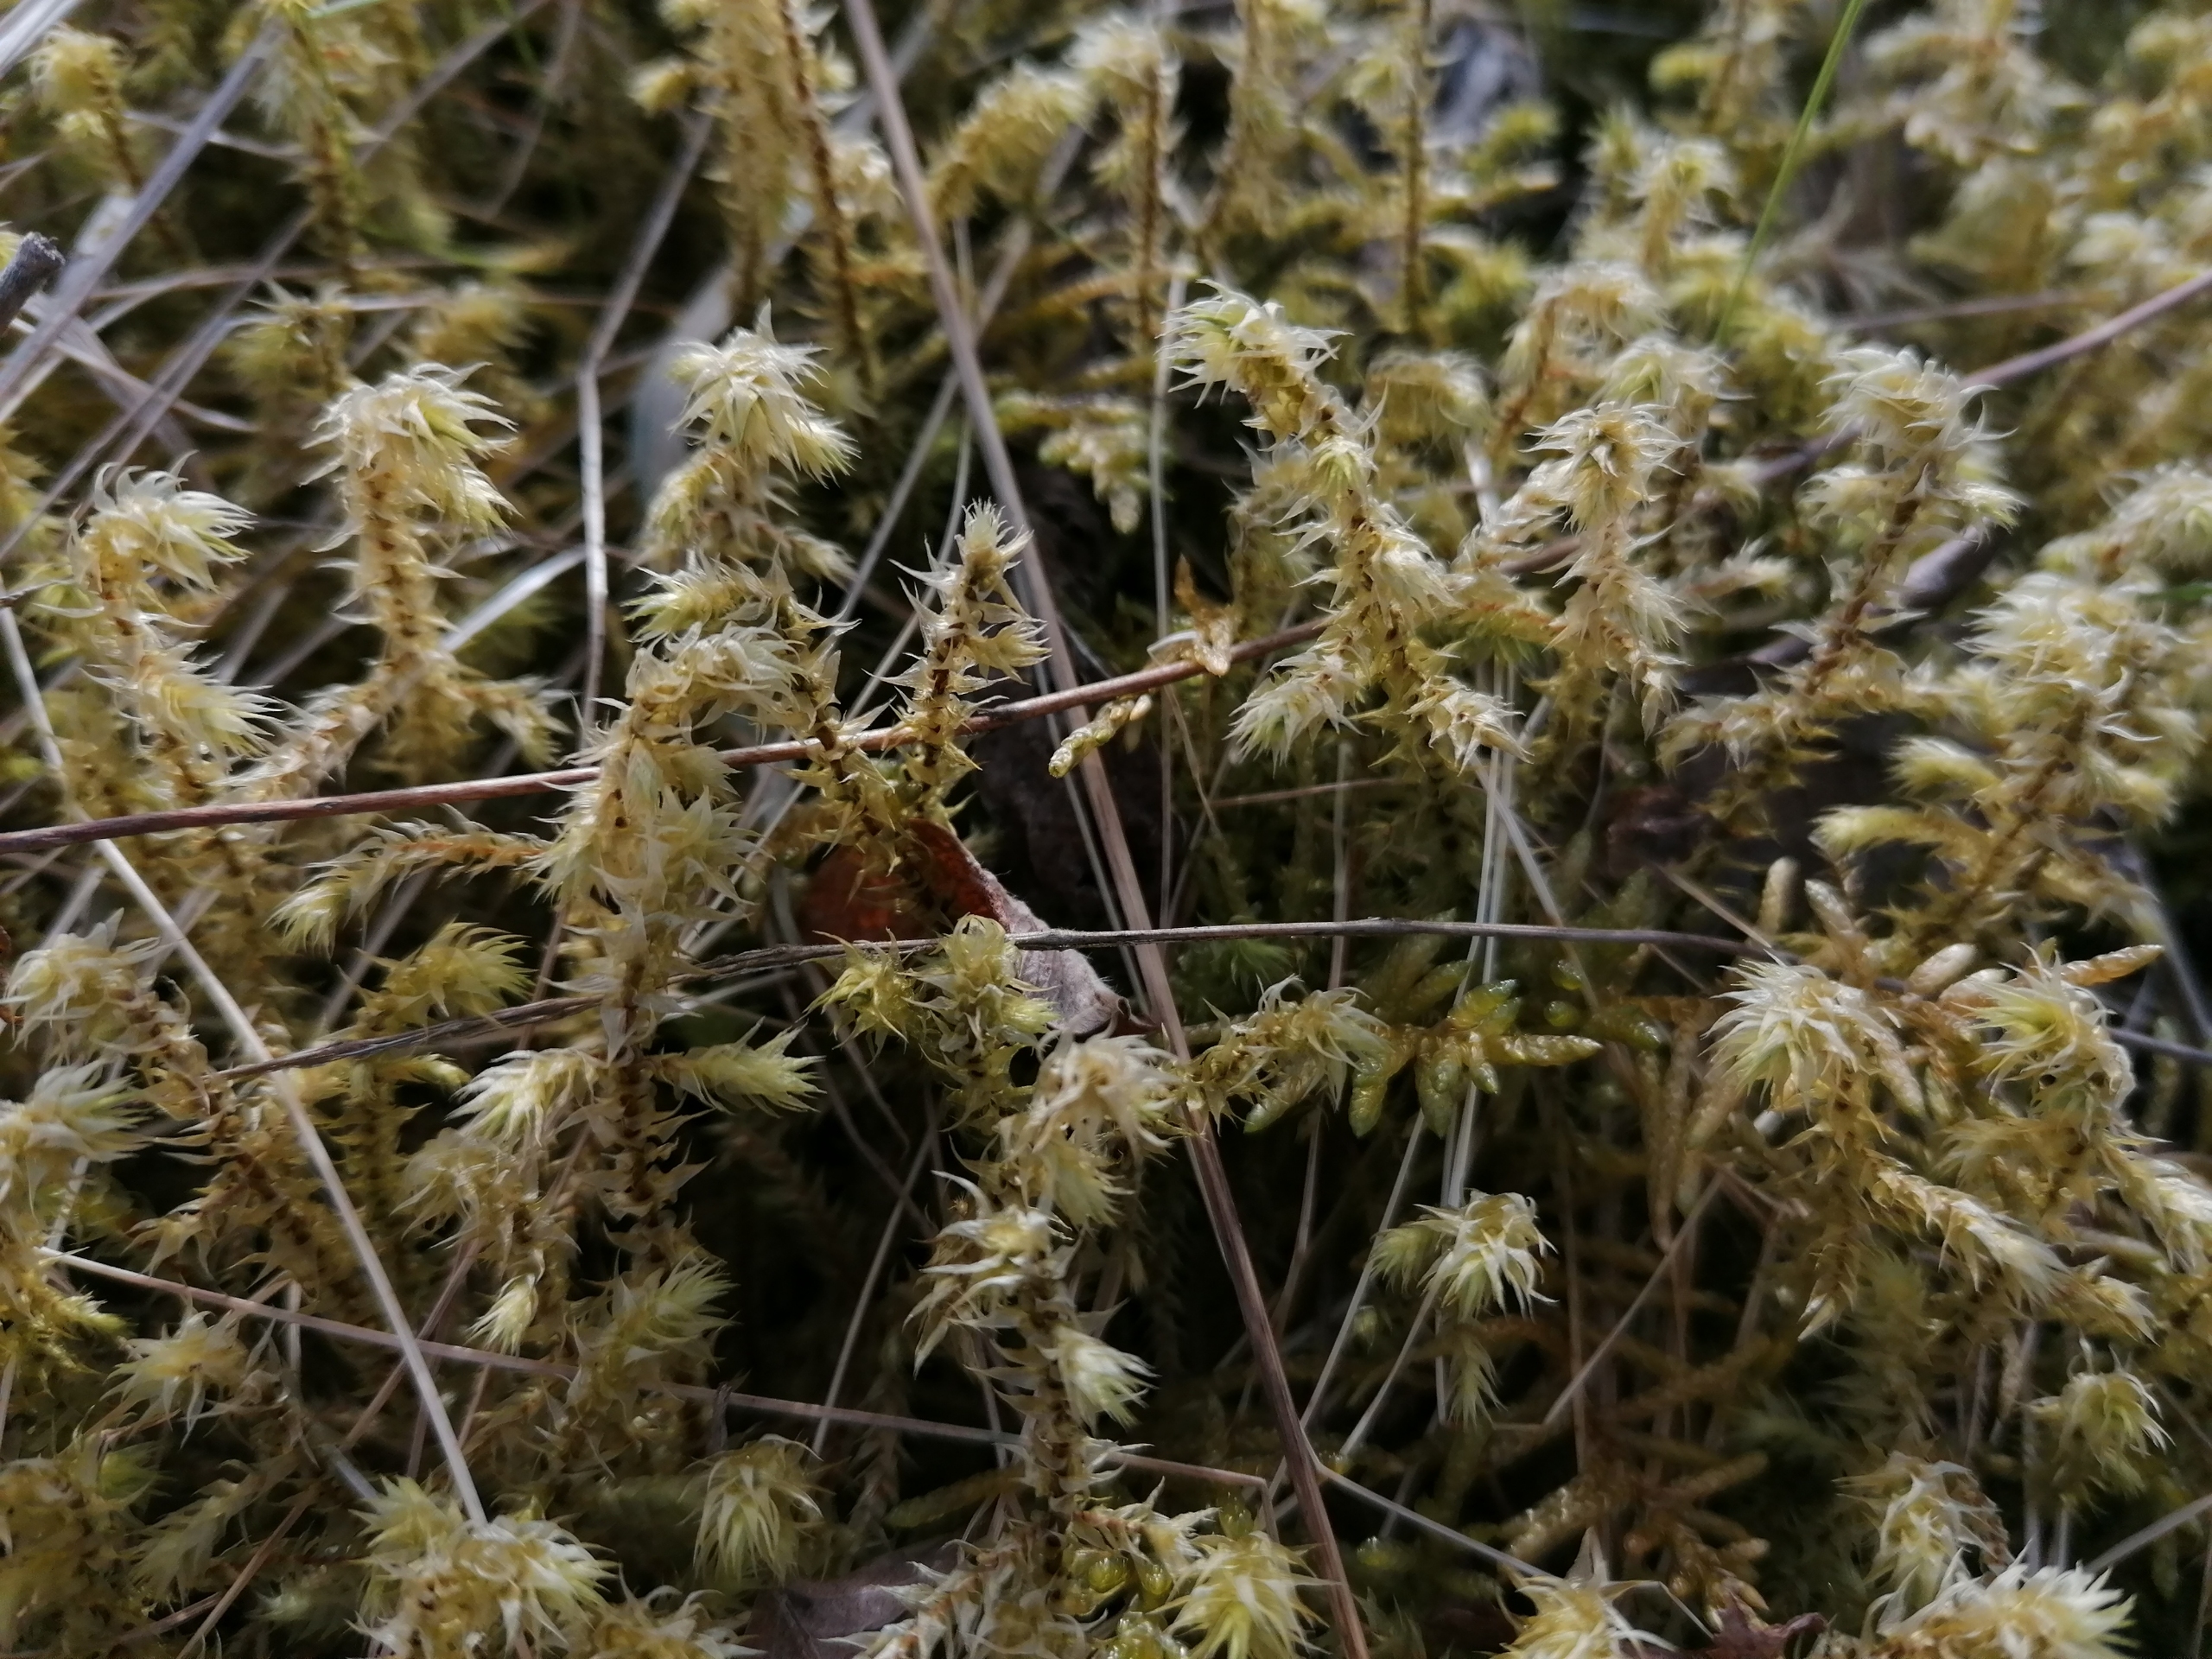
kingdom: Plantae
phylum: Bryophyta
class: Bryopsida
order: Hypnales
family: Hylocomiaceae
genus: Hylocomiadelphus
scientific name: Hylocomiadelphus triquetrus
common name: Stor kransemos
